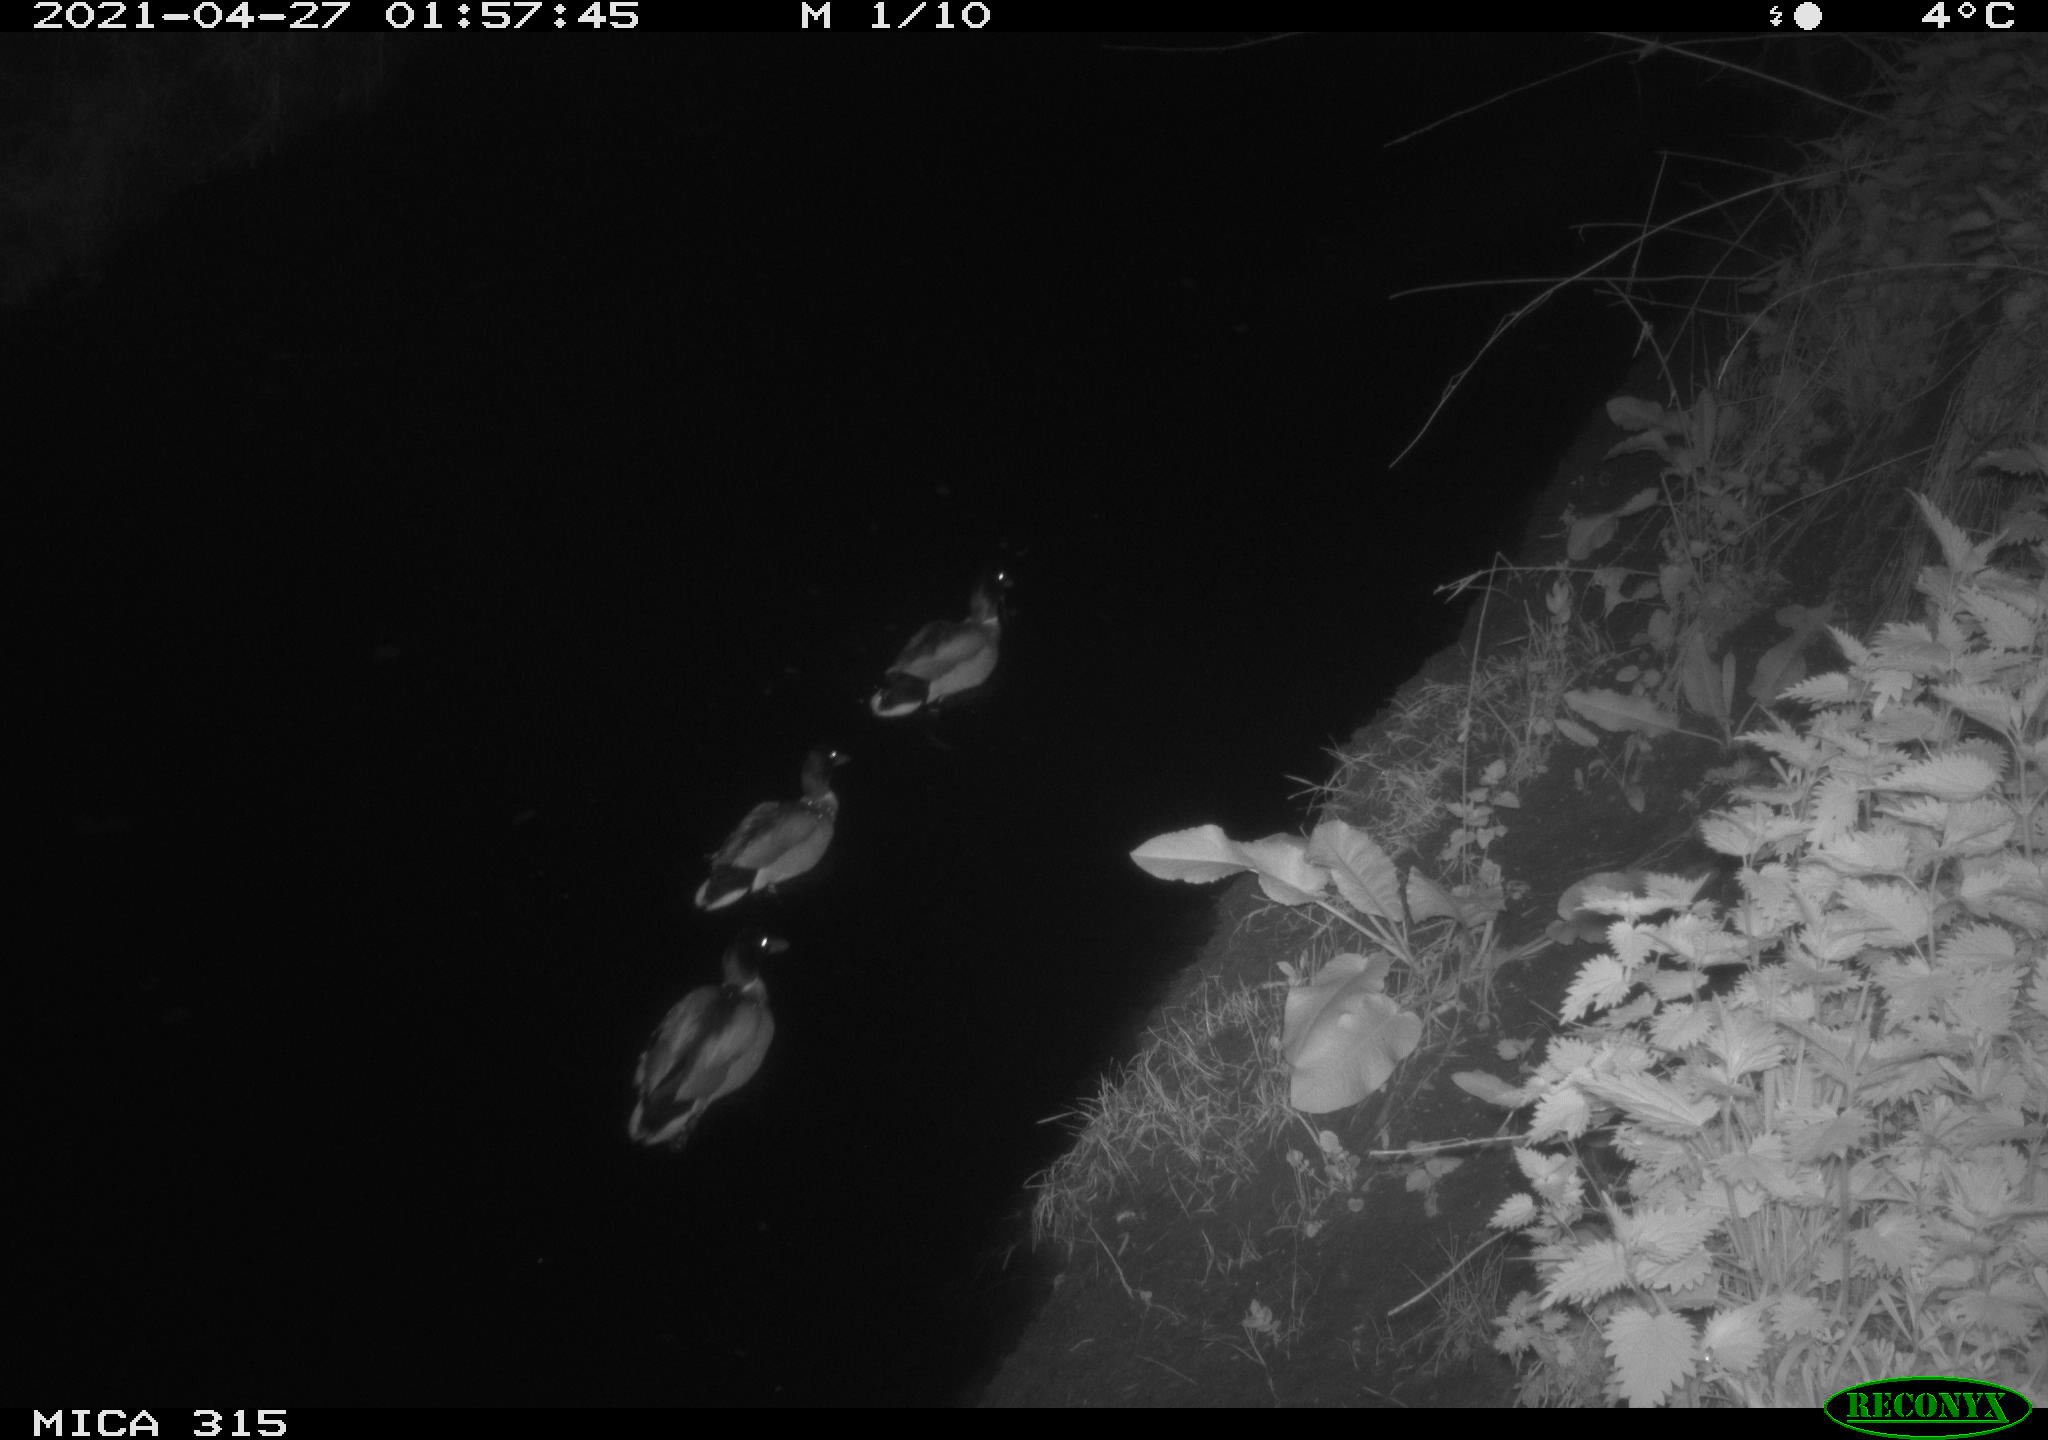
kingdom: Animalia
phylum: Chordata
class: Aves
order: Anseriformes
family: Anatidae
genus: Anas
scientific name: Anas
